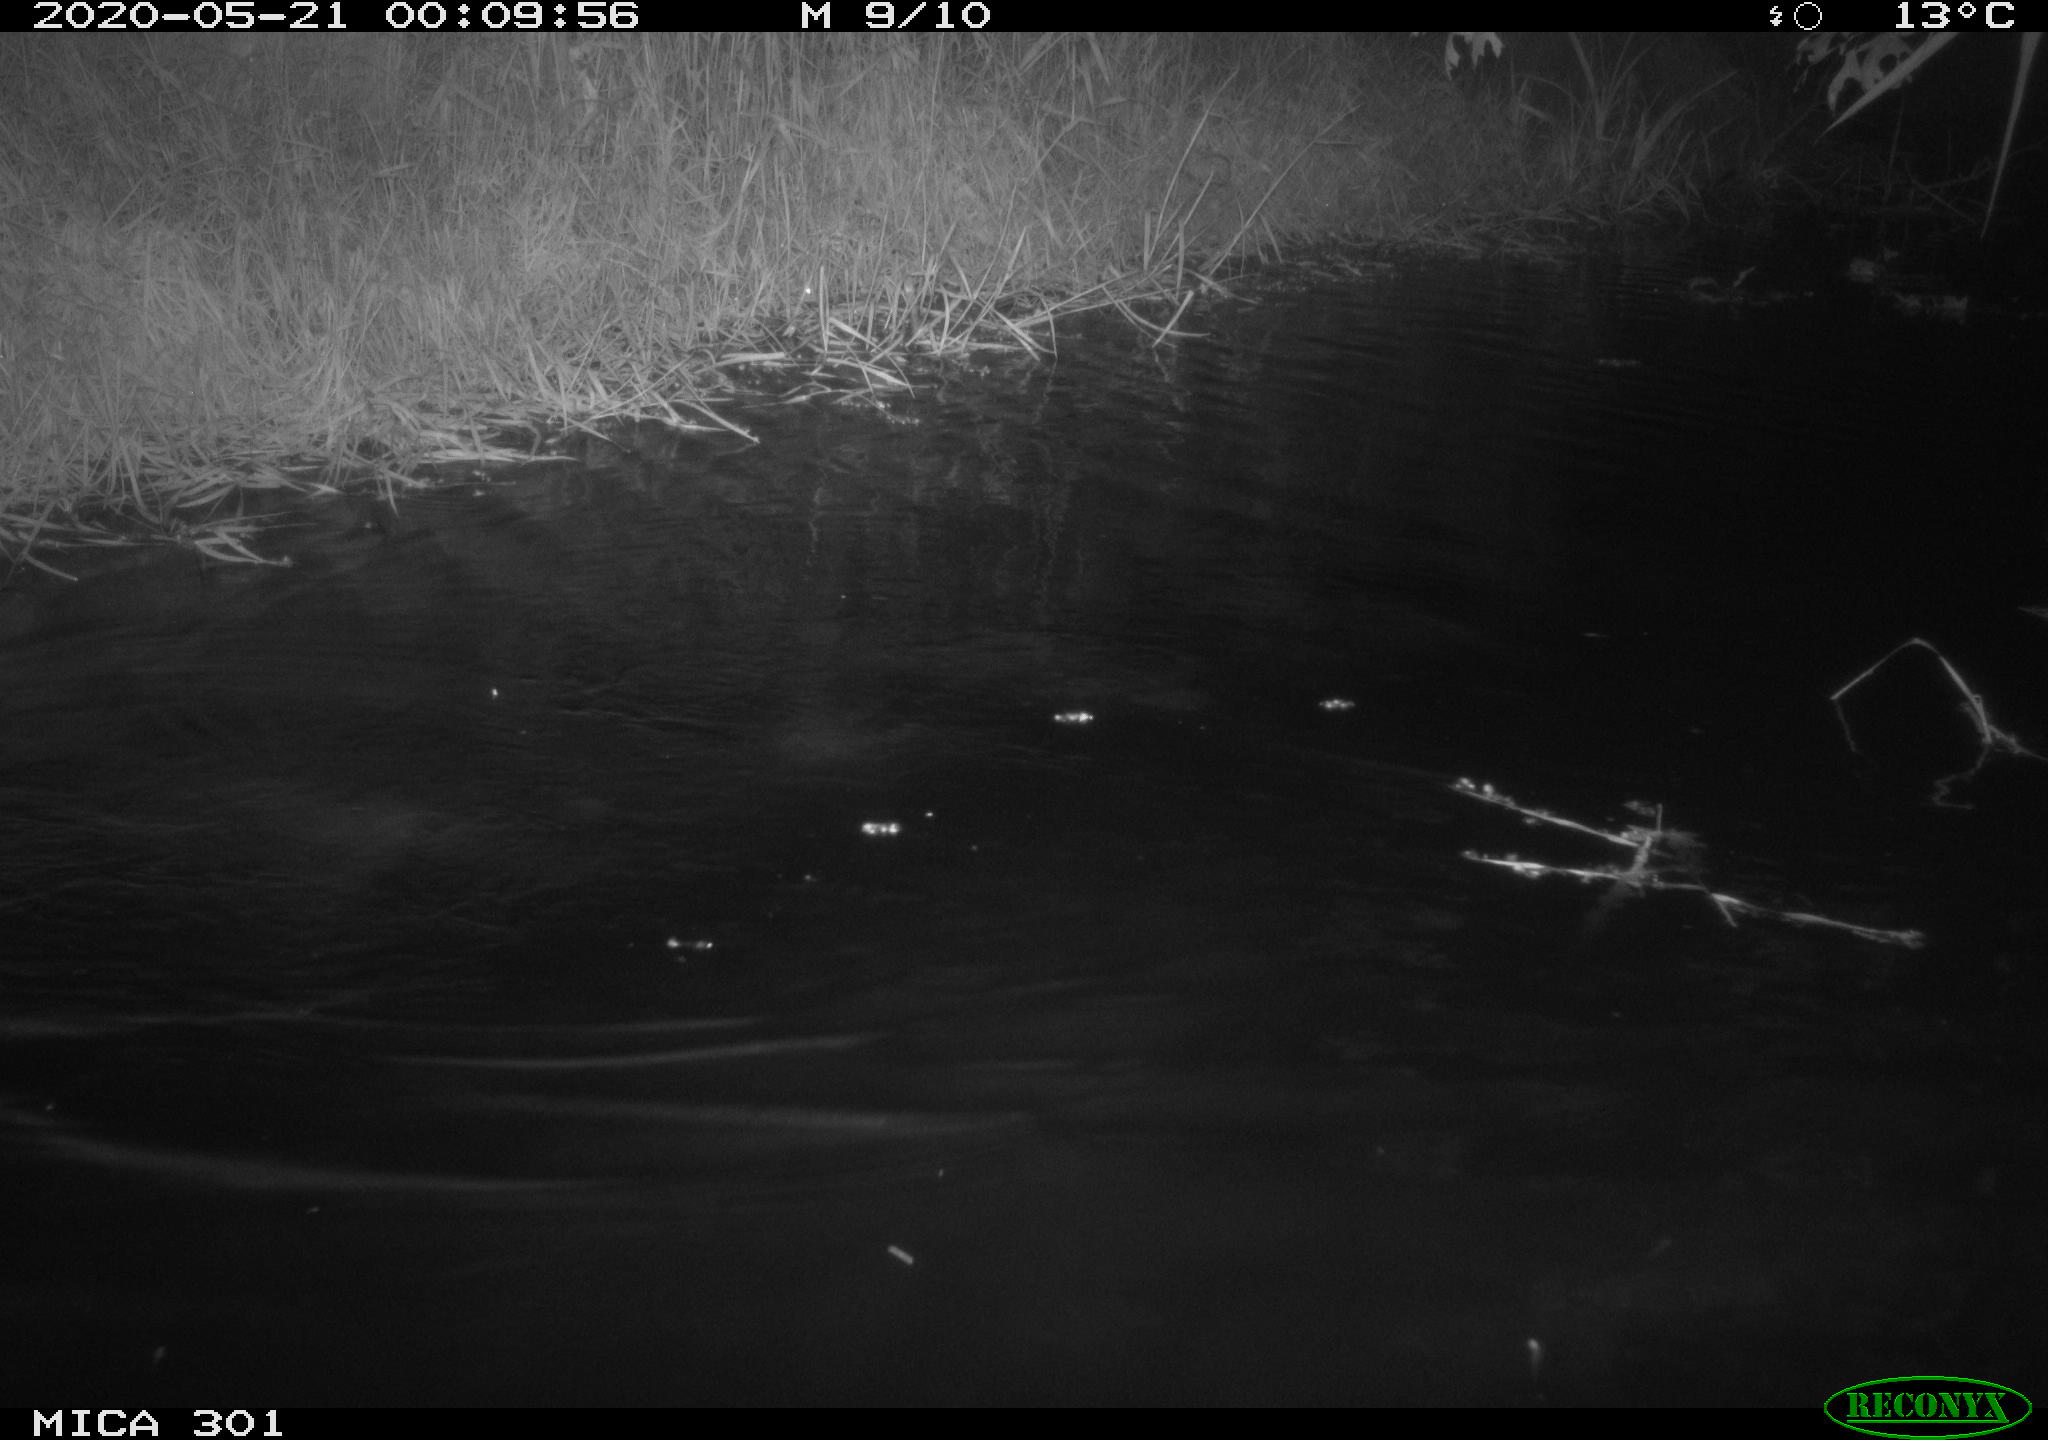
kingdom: Animalia
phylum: Chordata
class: Mammalia
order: Rodentia
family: Castoridae
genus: Castor
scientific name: Castor fiber
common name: Eurasian beaver
